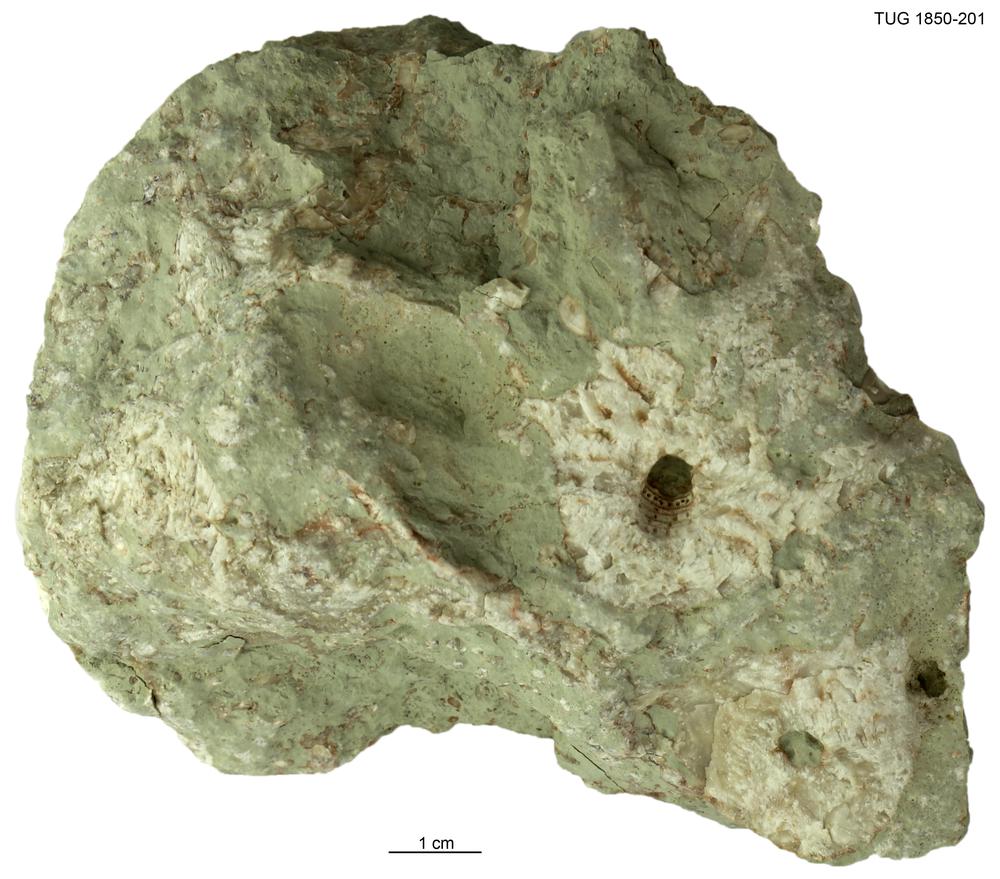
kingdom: Animalia
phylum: Echinodermata
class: Crinoidea
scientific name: Crinoidea
